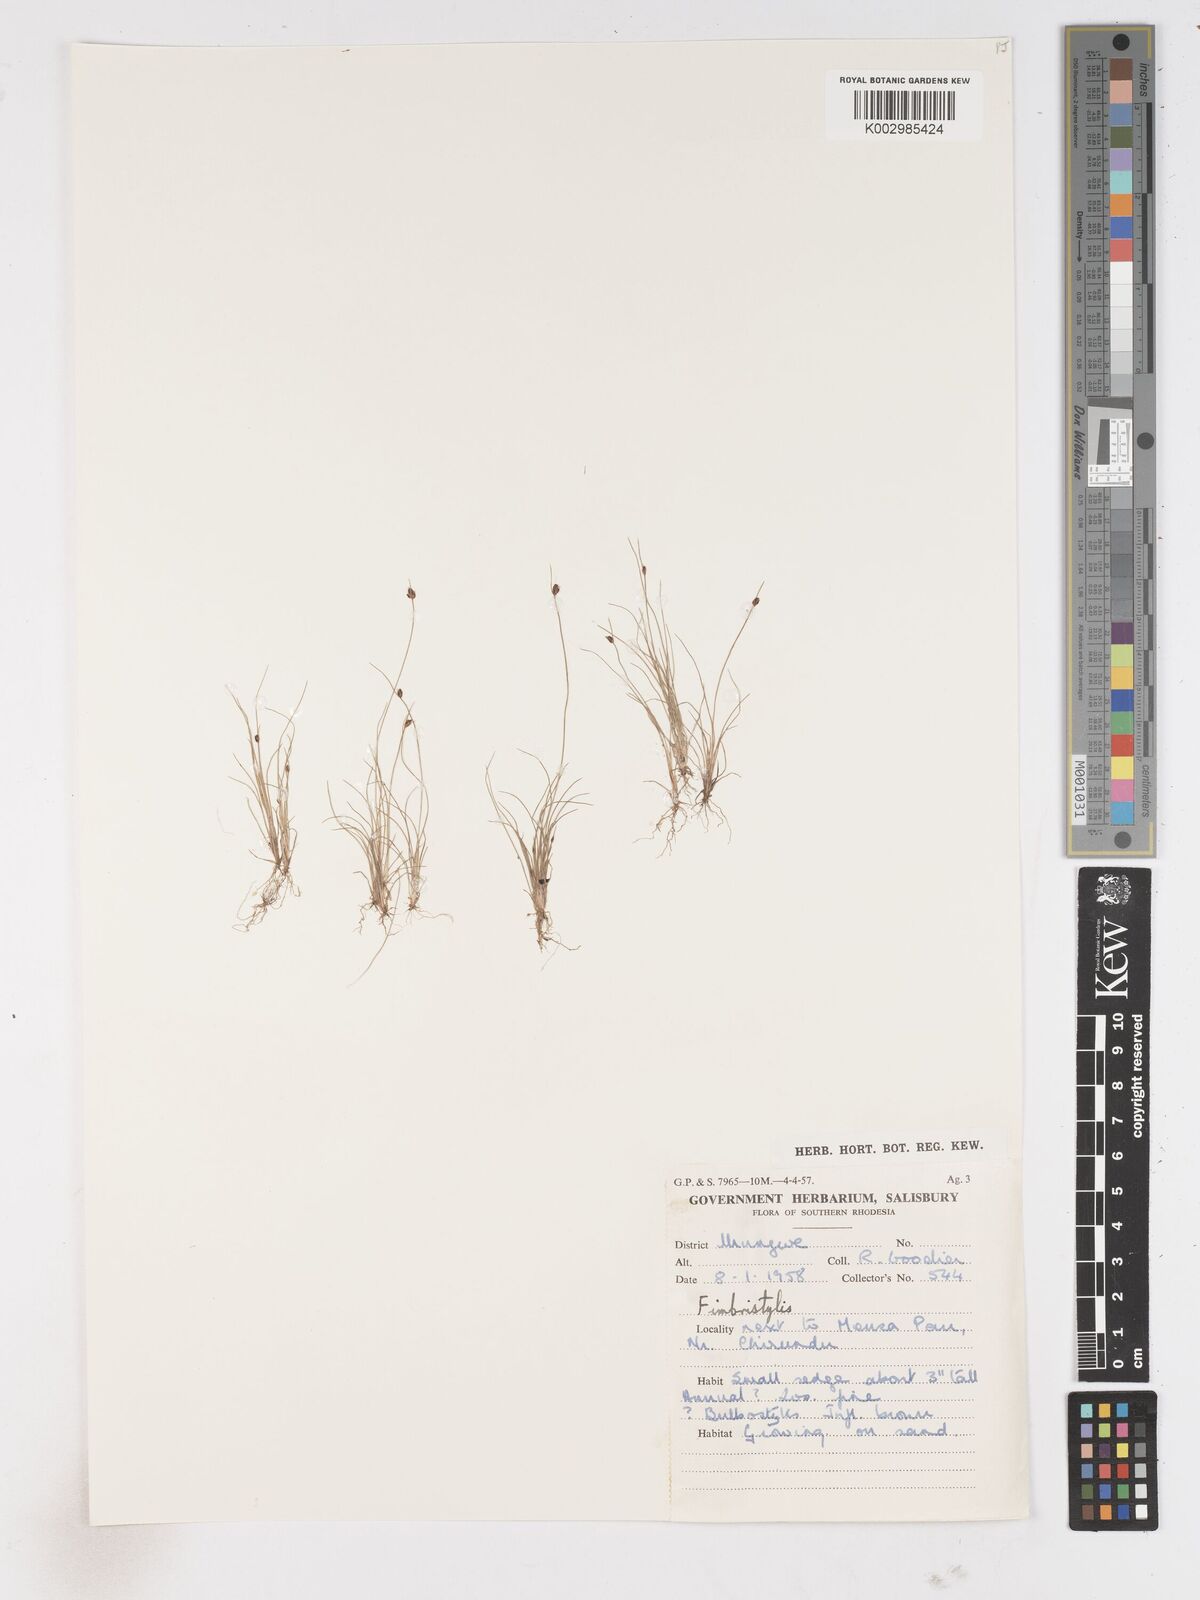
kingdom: Plantae
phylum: Tracheophyta
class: Liliopsida
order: Poales
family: Cyperaceae
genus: Fimbristylis
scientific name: Fimbristylis
